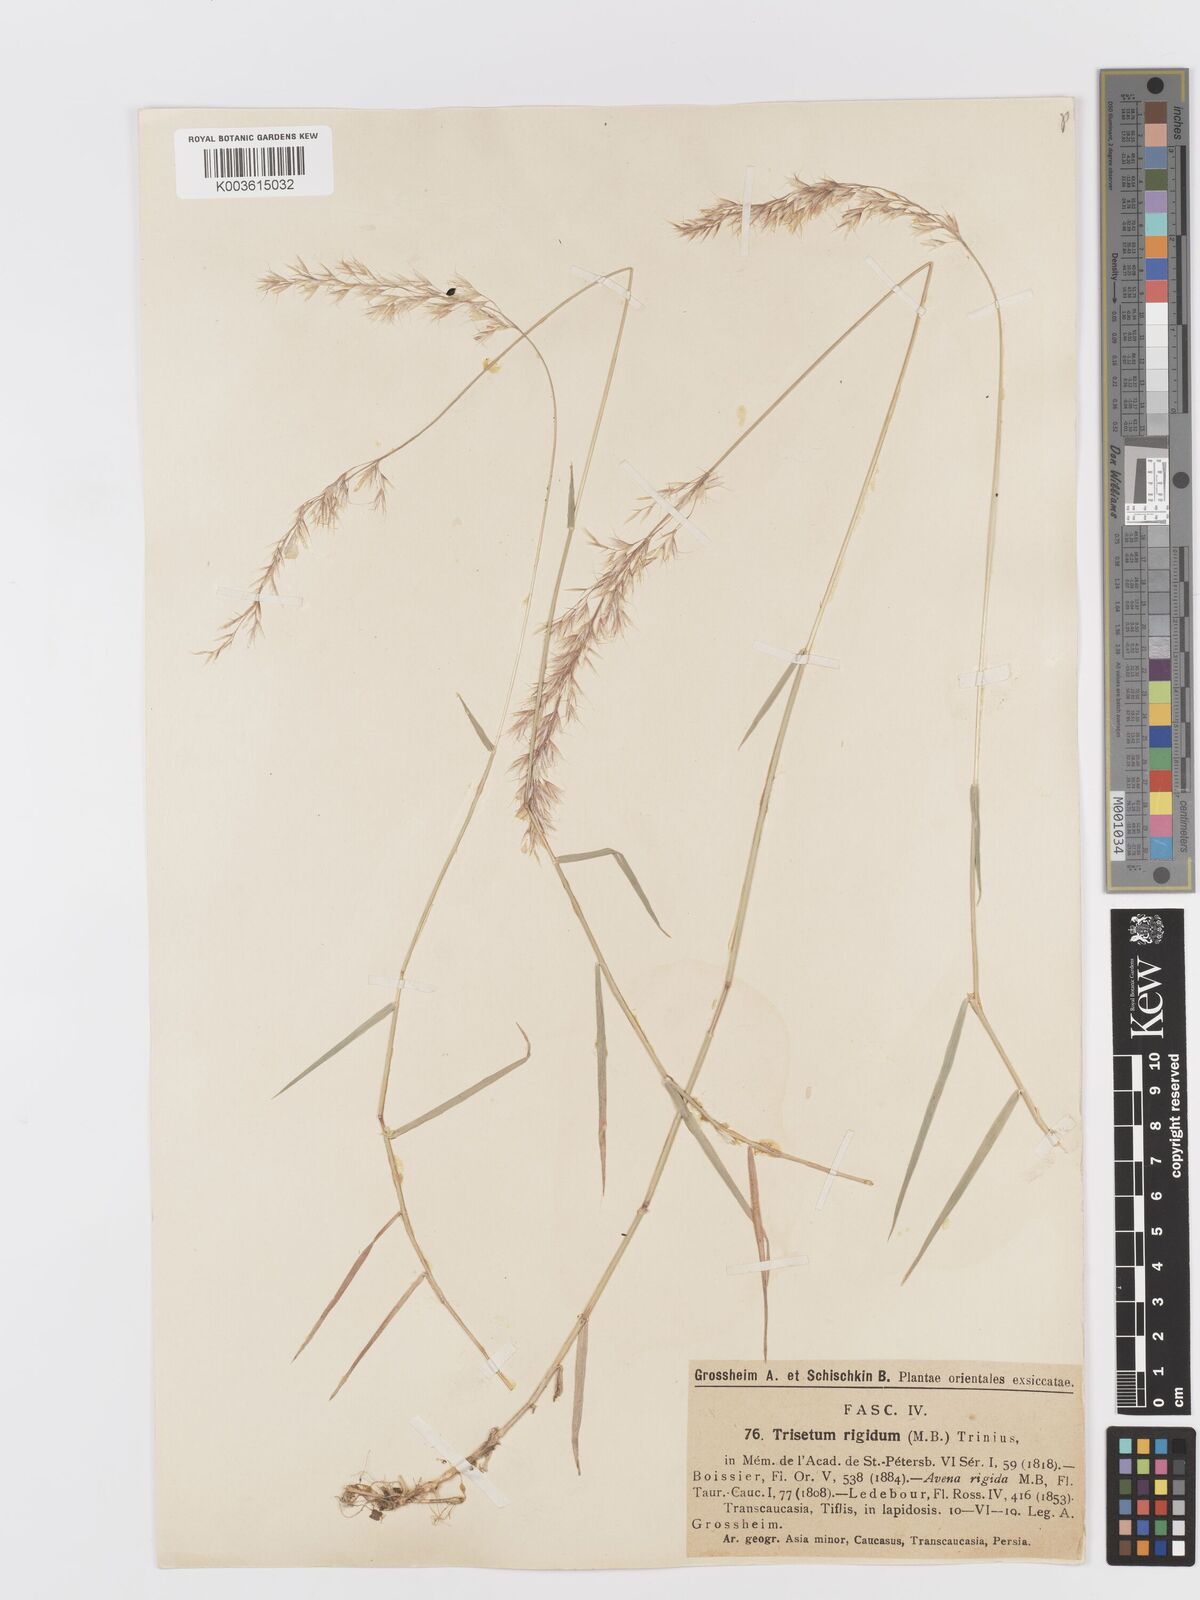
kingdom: Plantae
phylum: Tracheophyta
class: Liliopsida
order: Poales
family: Poaceae
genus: Trisetum
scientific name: Trisetum rigidum
